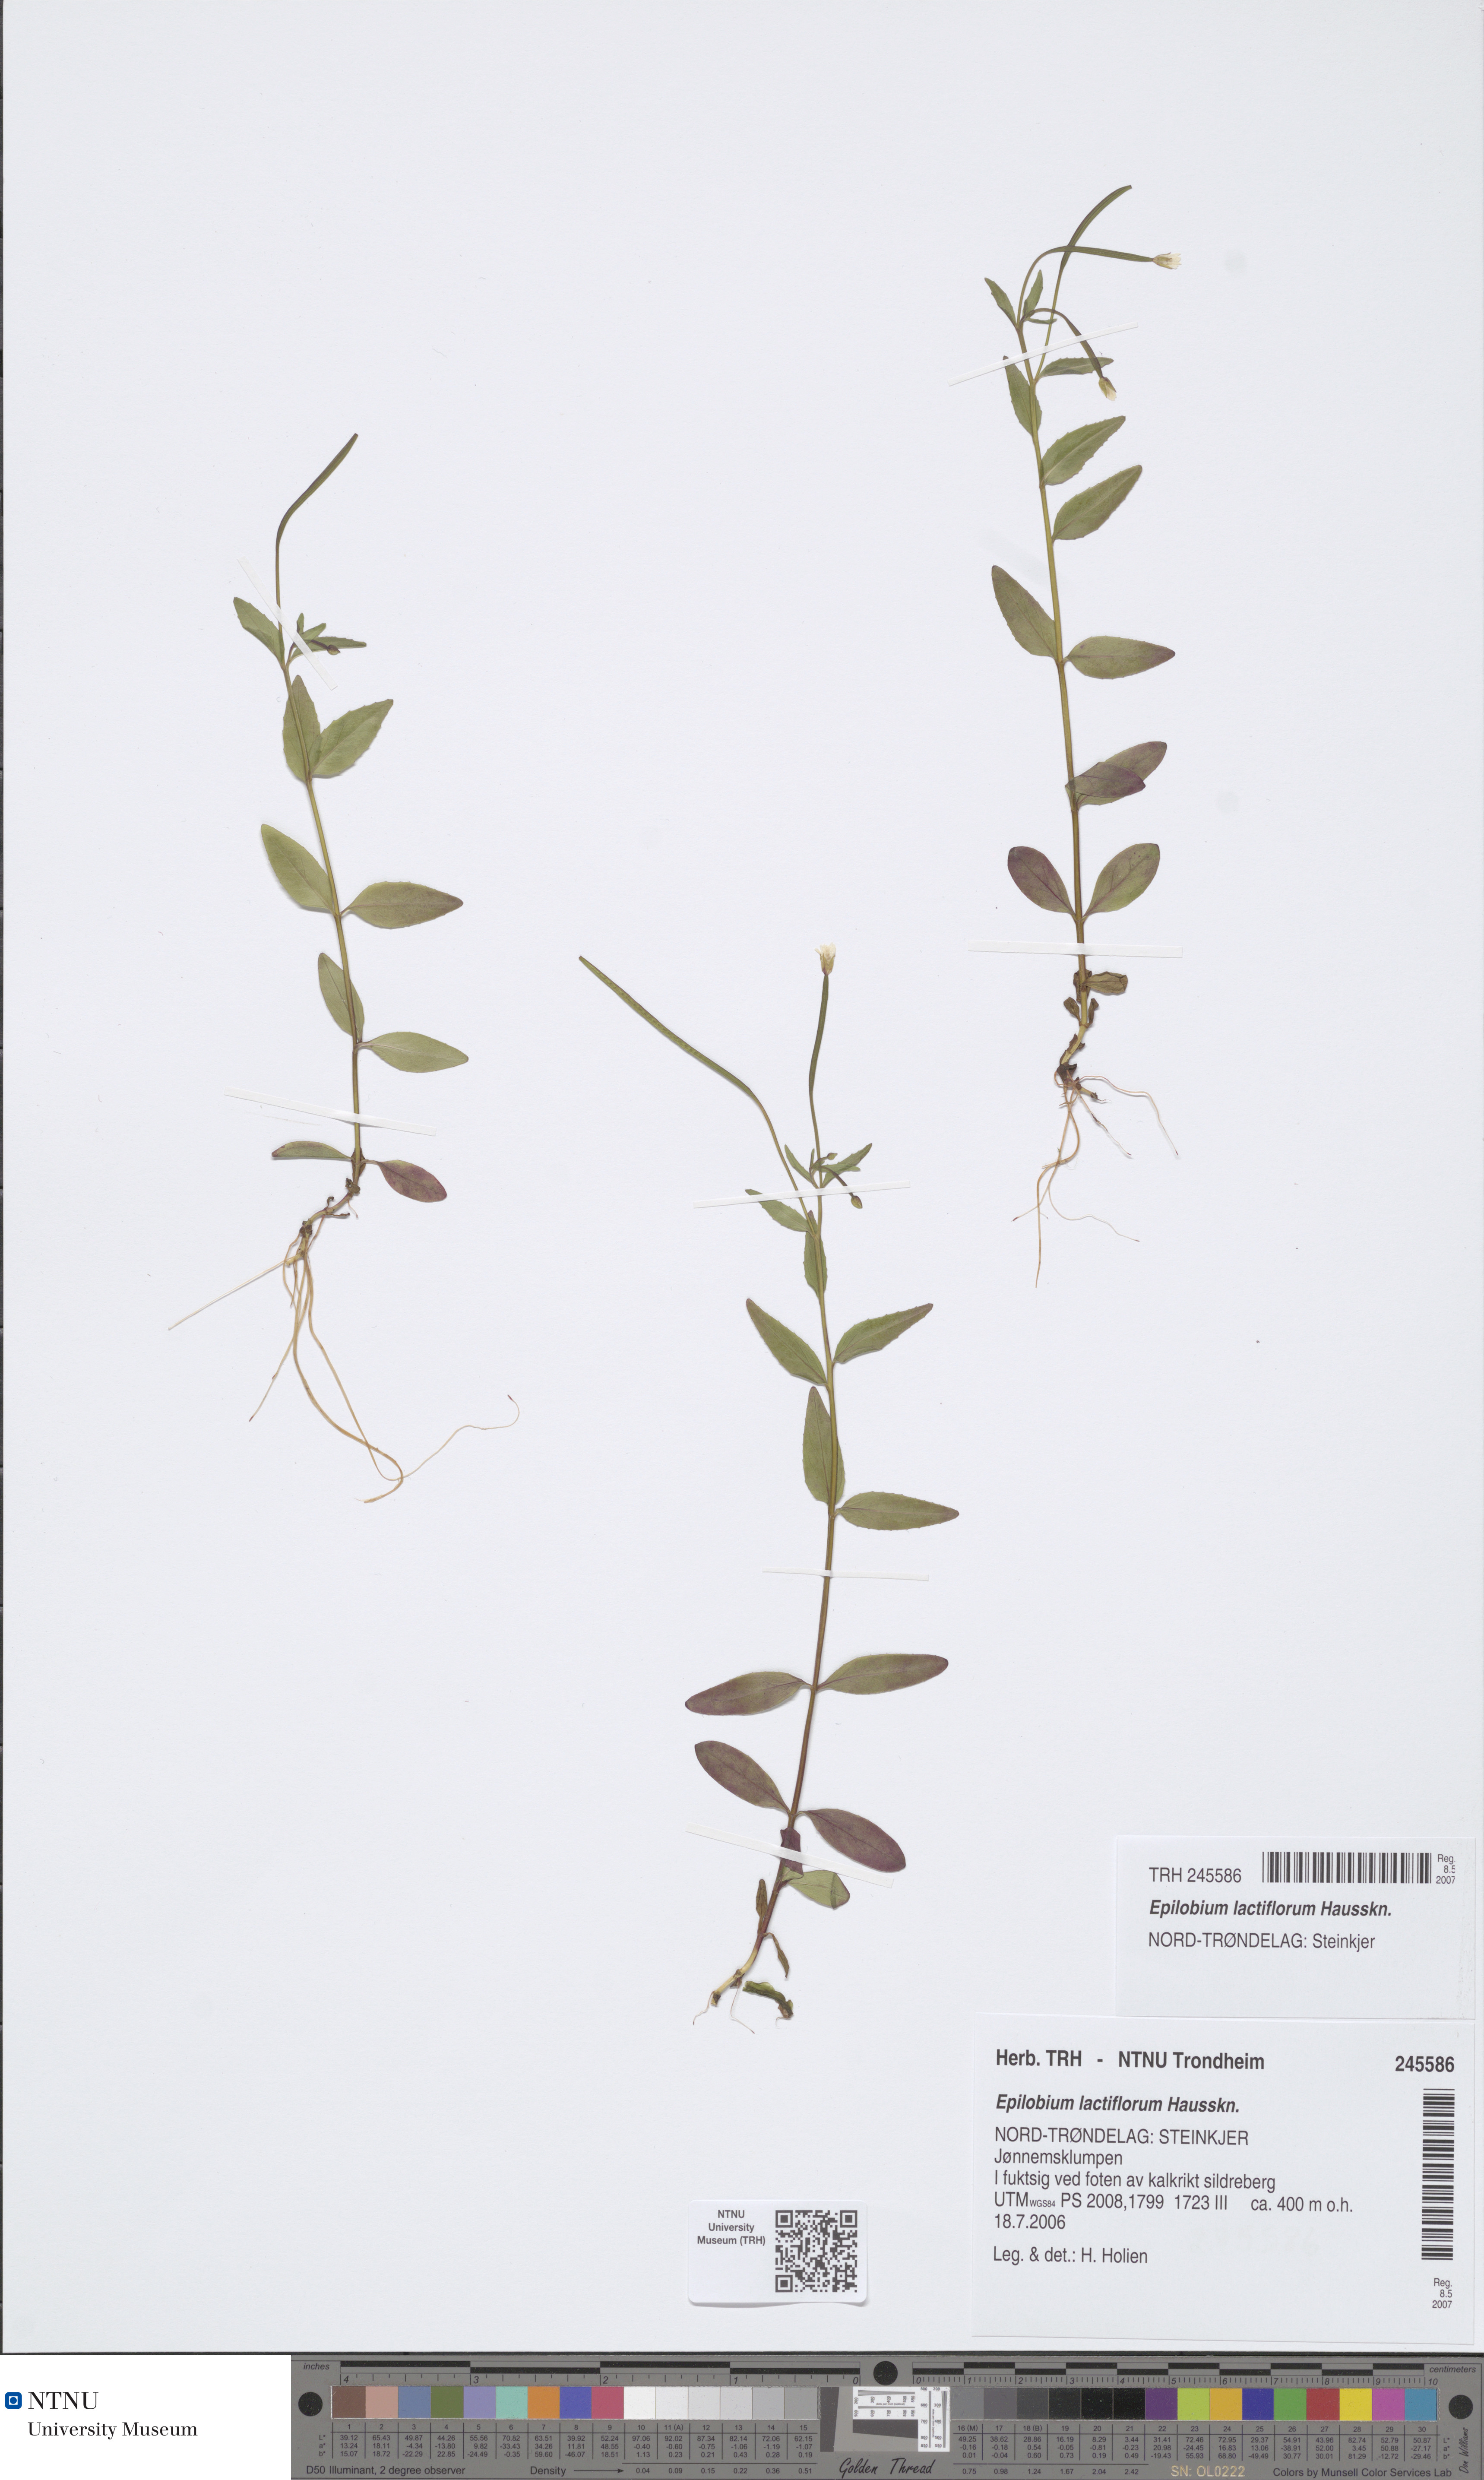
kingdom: Plantae
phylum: Tracheophyta
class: Magnoliopsida
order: Myrtales
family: Onagraceae
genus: Epilobium
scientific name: Epilobium lactiflorum
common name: Milkflower willowherb
